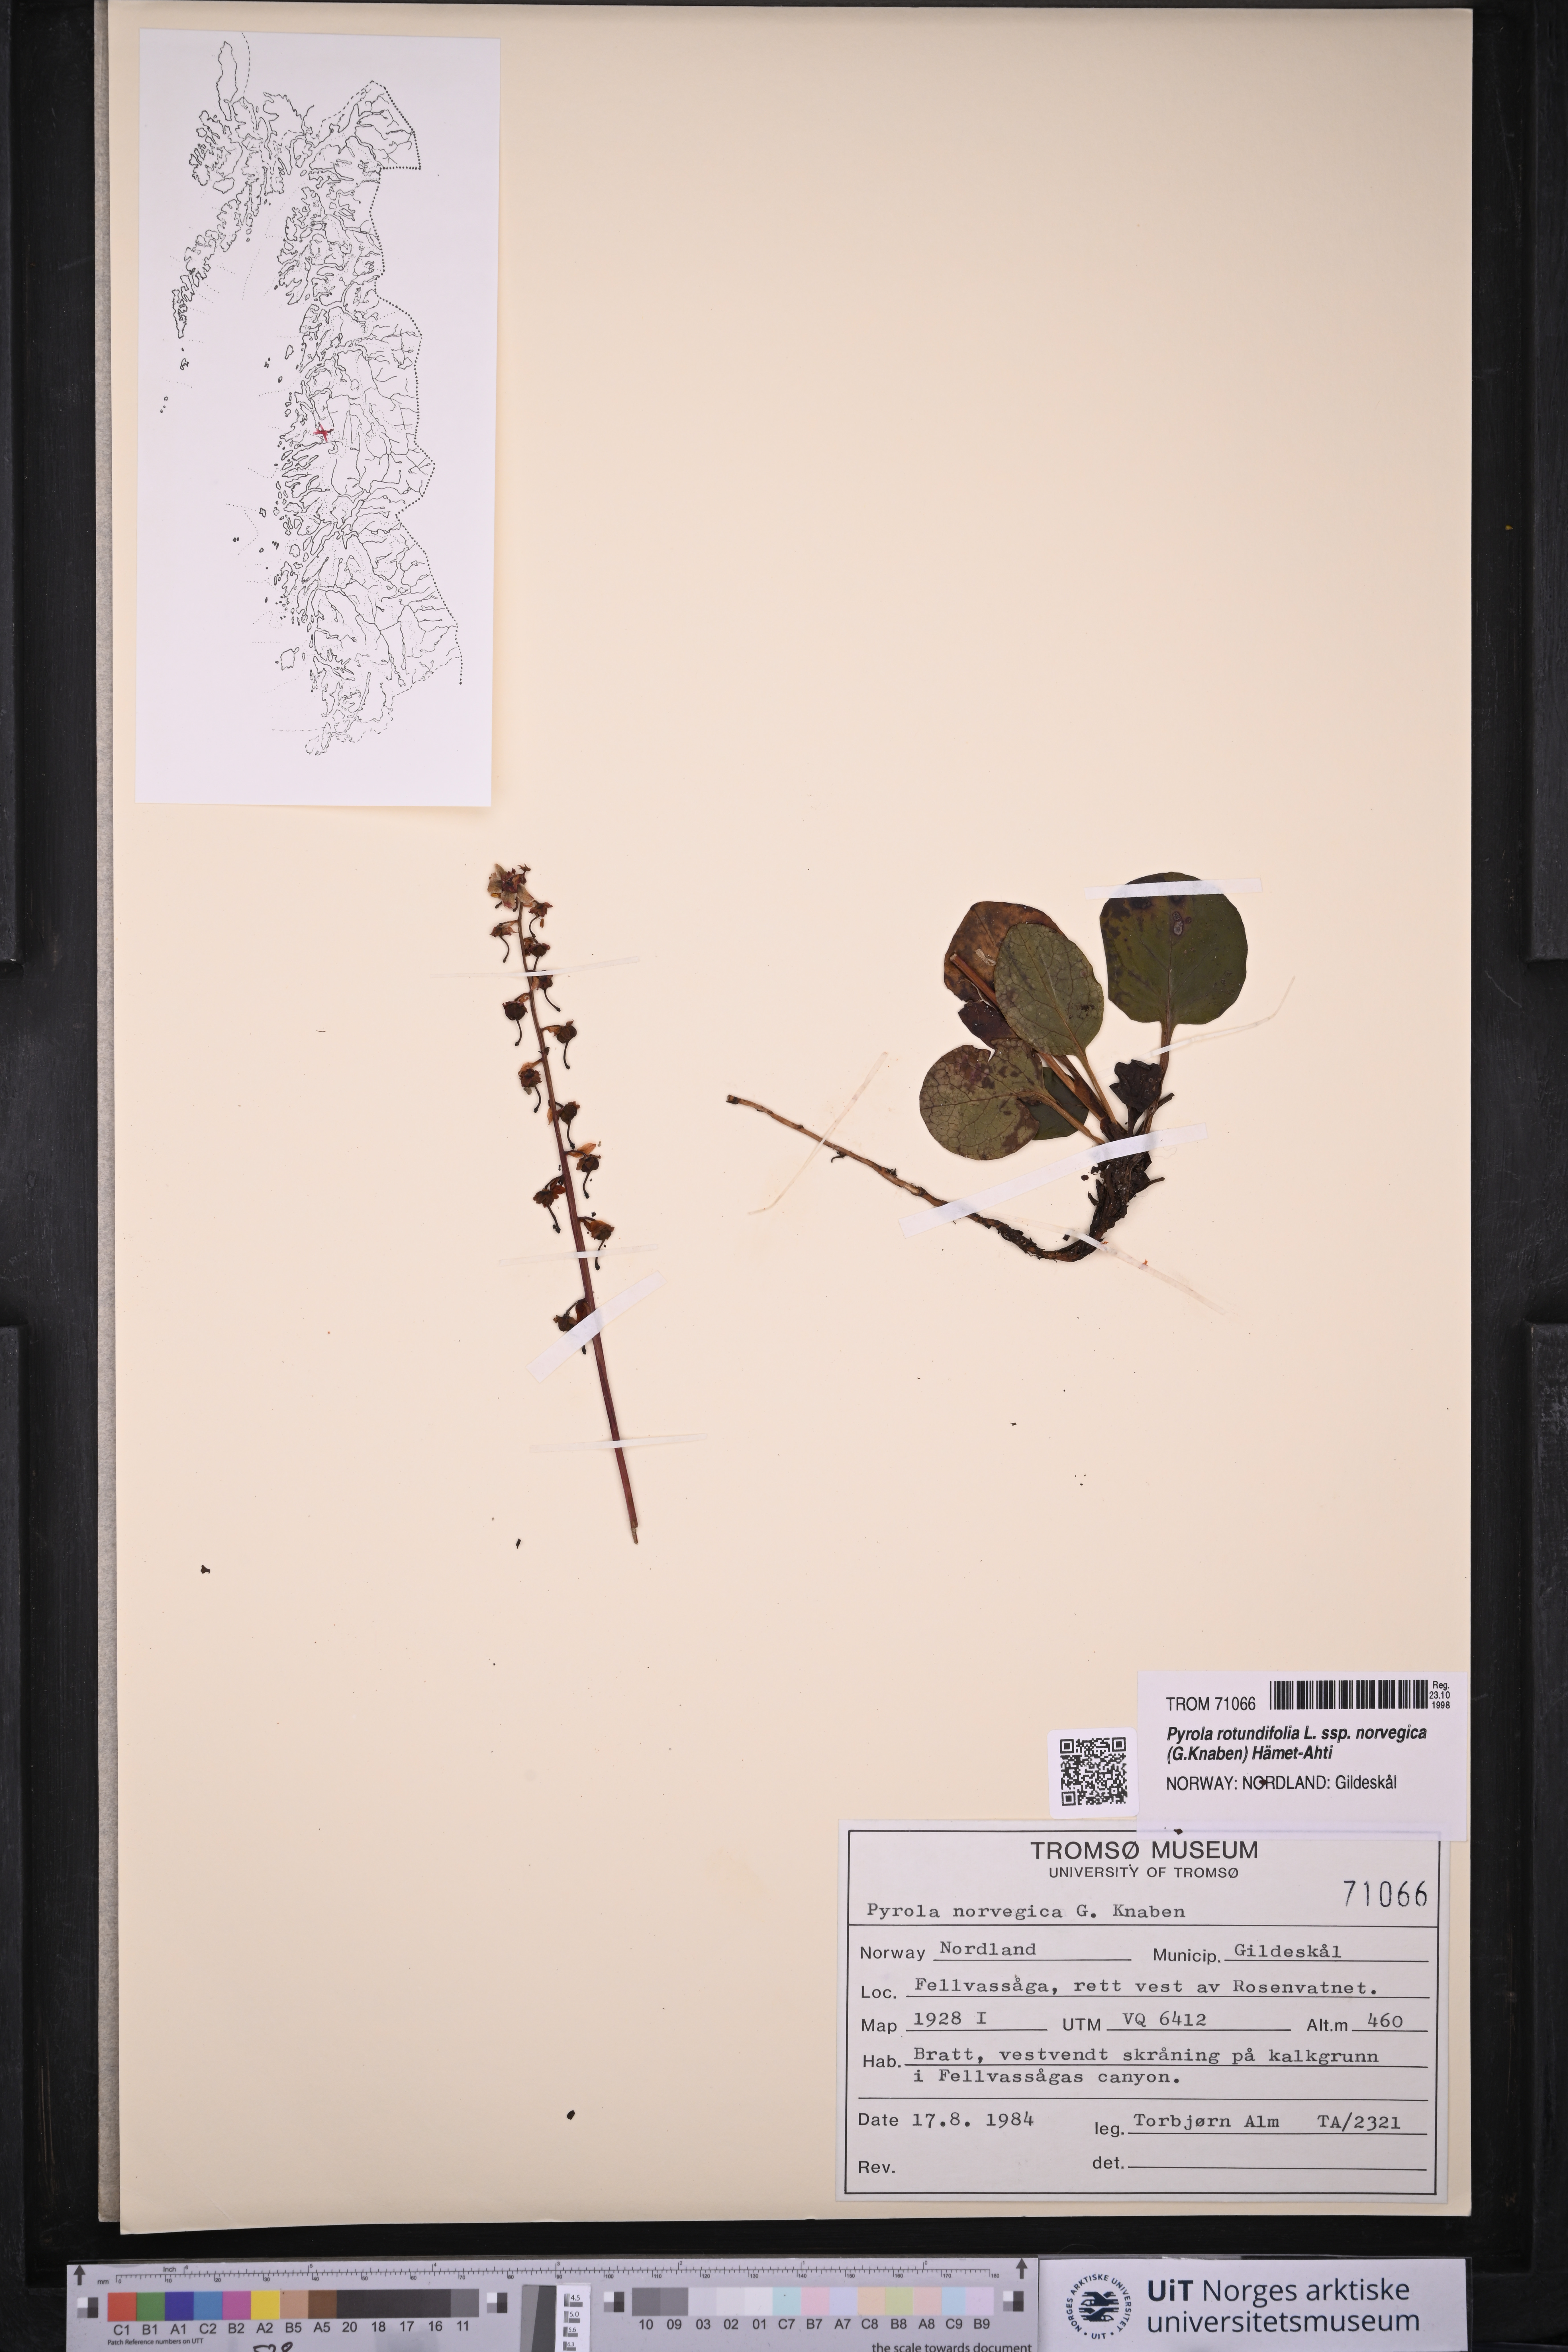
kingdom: Plantae
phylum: Tracheophyta
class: Magnoliopsida
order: Ericales
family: Ericaceae
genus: Pyrola
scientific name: Pyrola rotundifolia
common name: Round-leaved wintergreen
